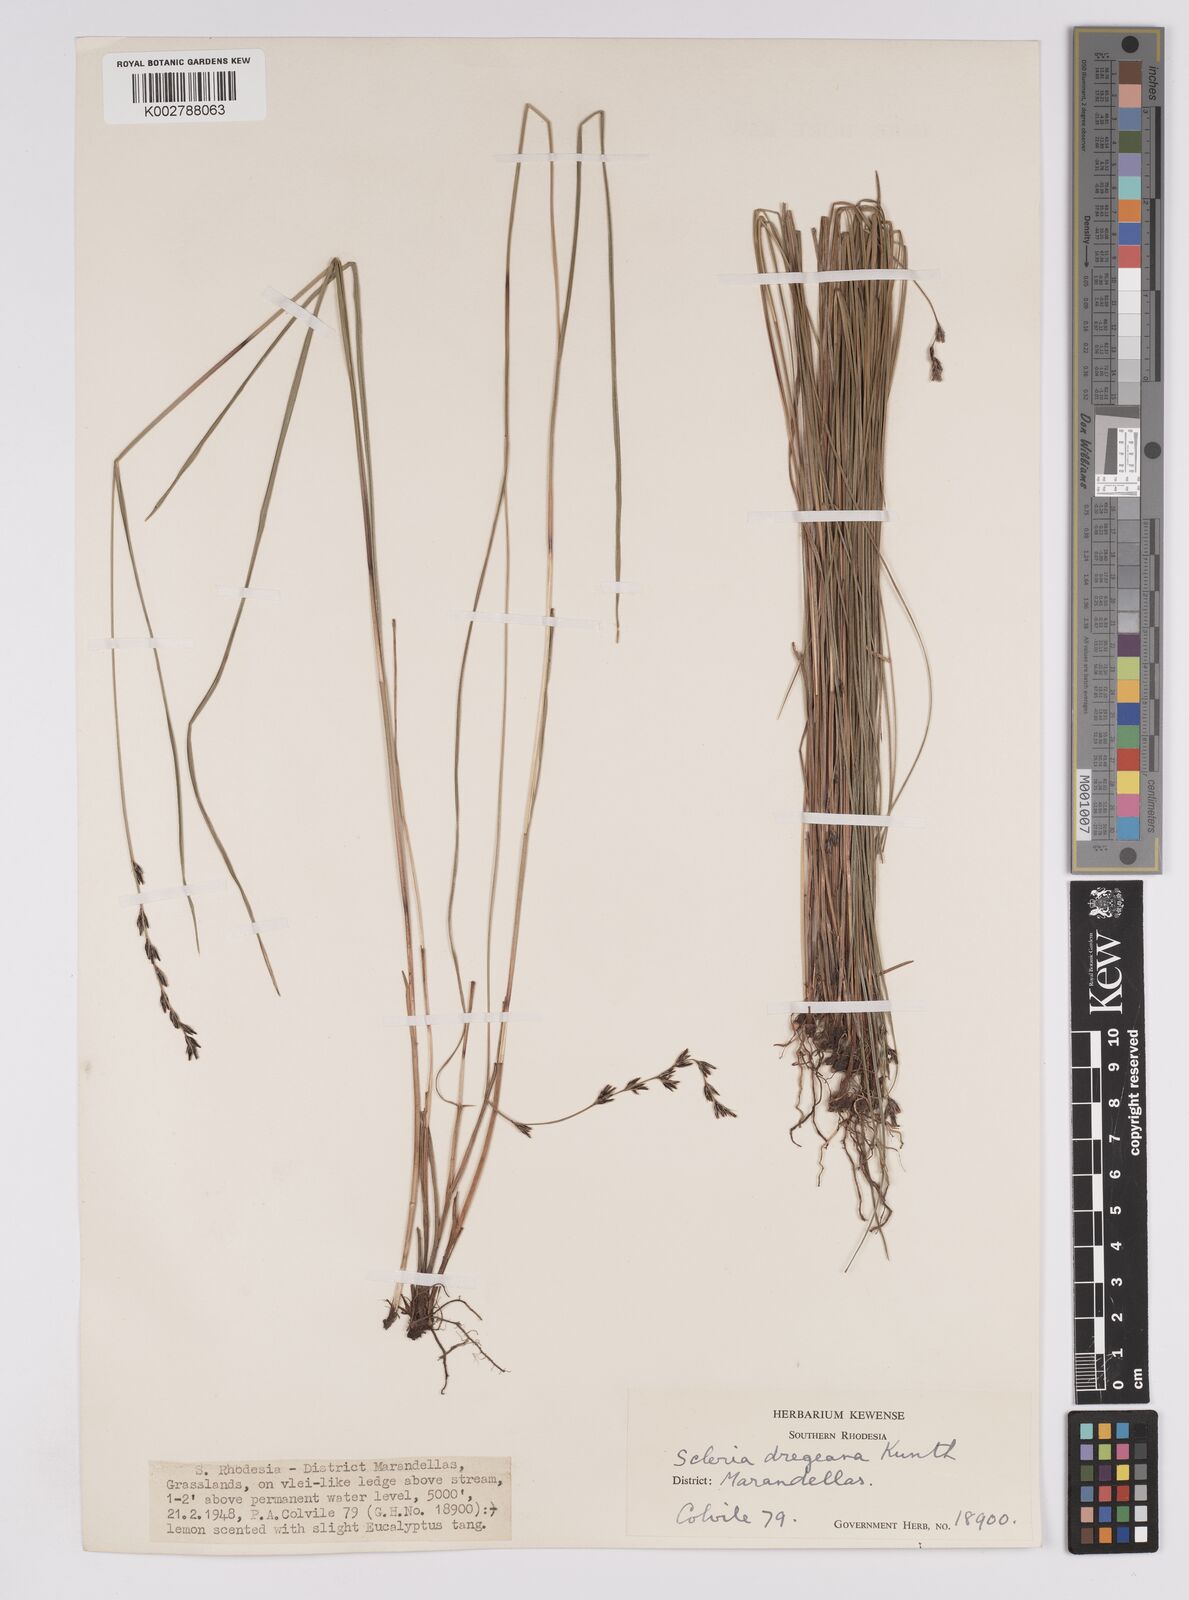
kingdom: Plantae
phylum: Tracheophyta
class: Liliopsida
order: Poales
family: Cyperaceae
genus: Scleria
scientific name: Scleria dregeana
